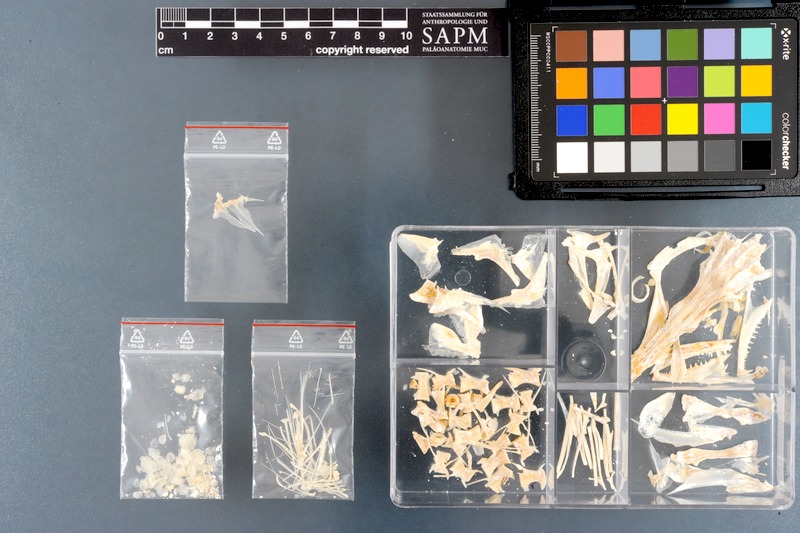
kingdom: Animalia
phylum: Chordata
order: Perciformes
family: Sphyraenidae
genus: Sphyraena
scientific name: Sphyraena flavicauda
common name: Yellowtail barracuda
